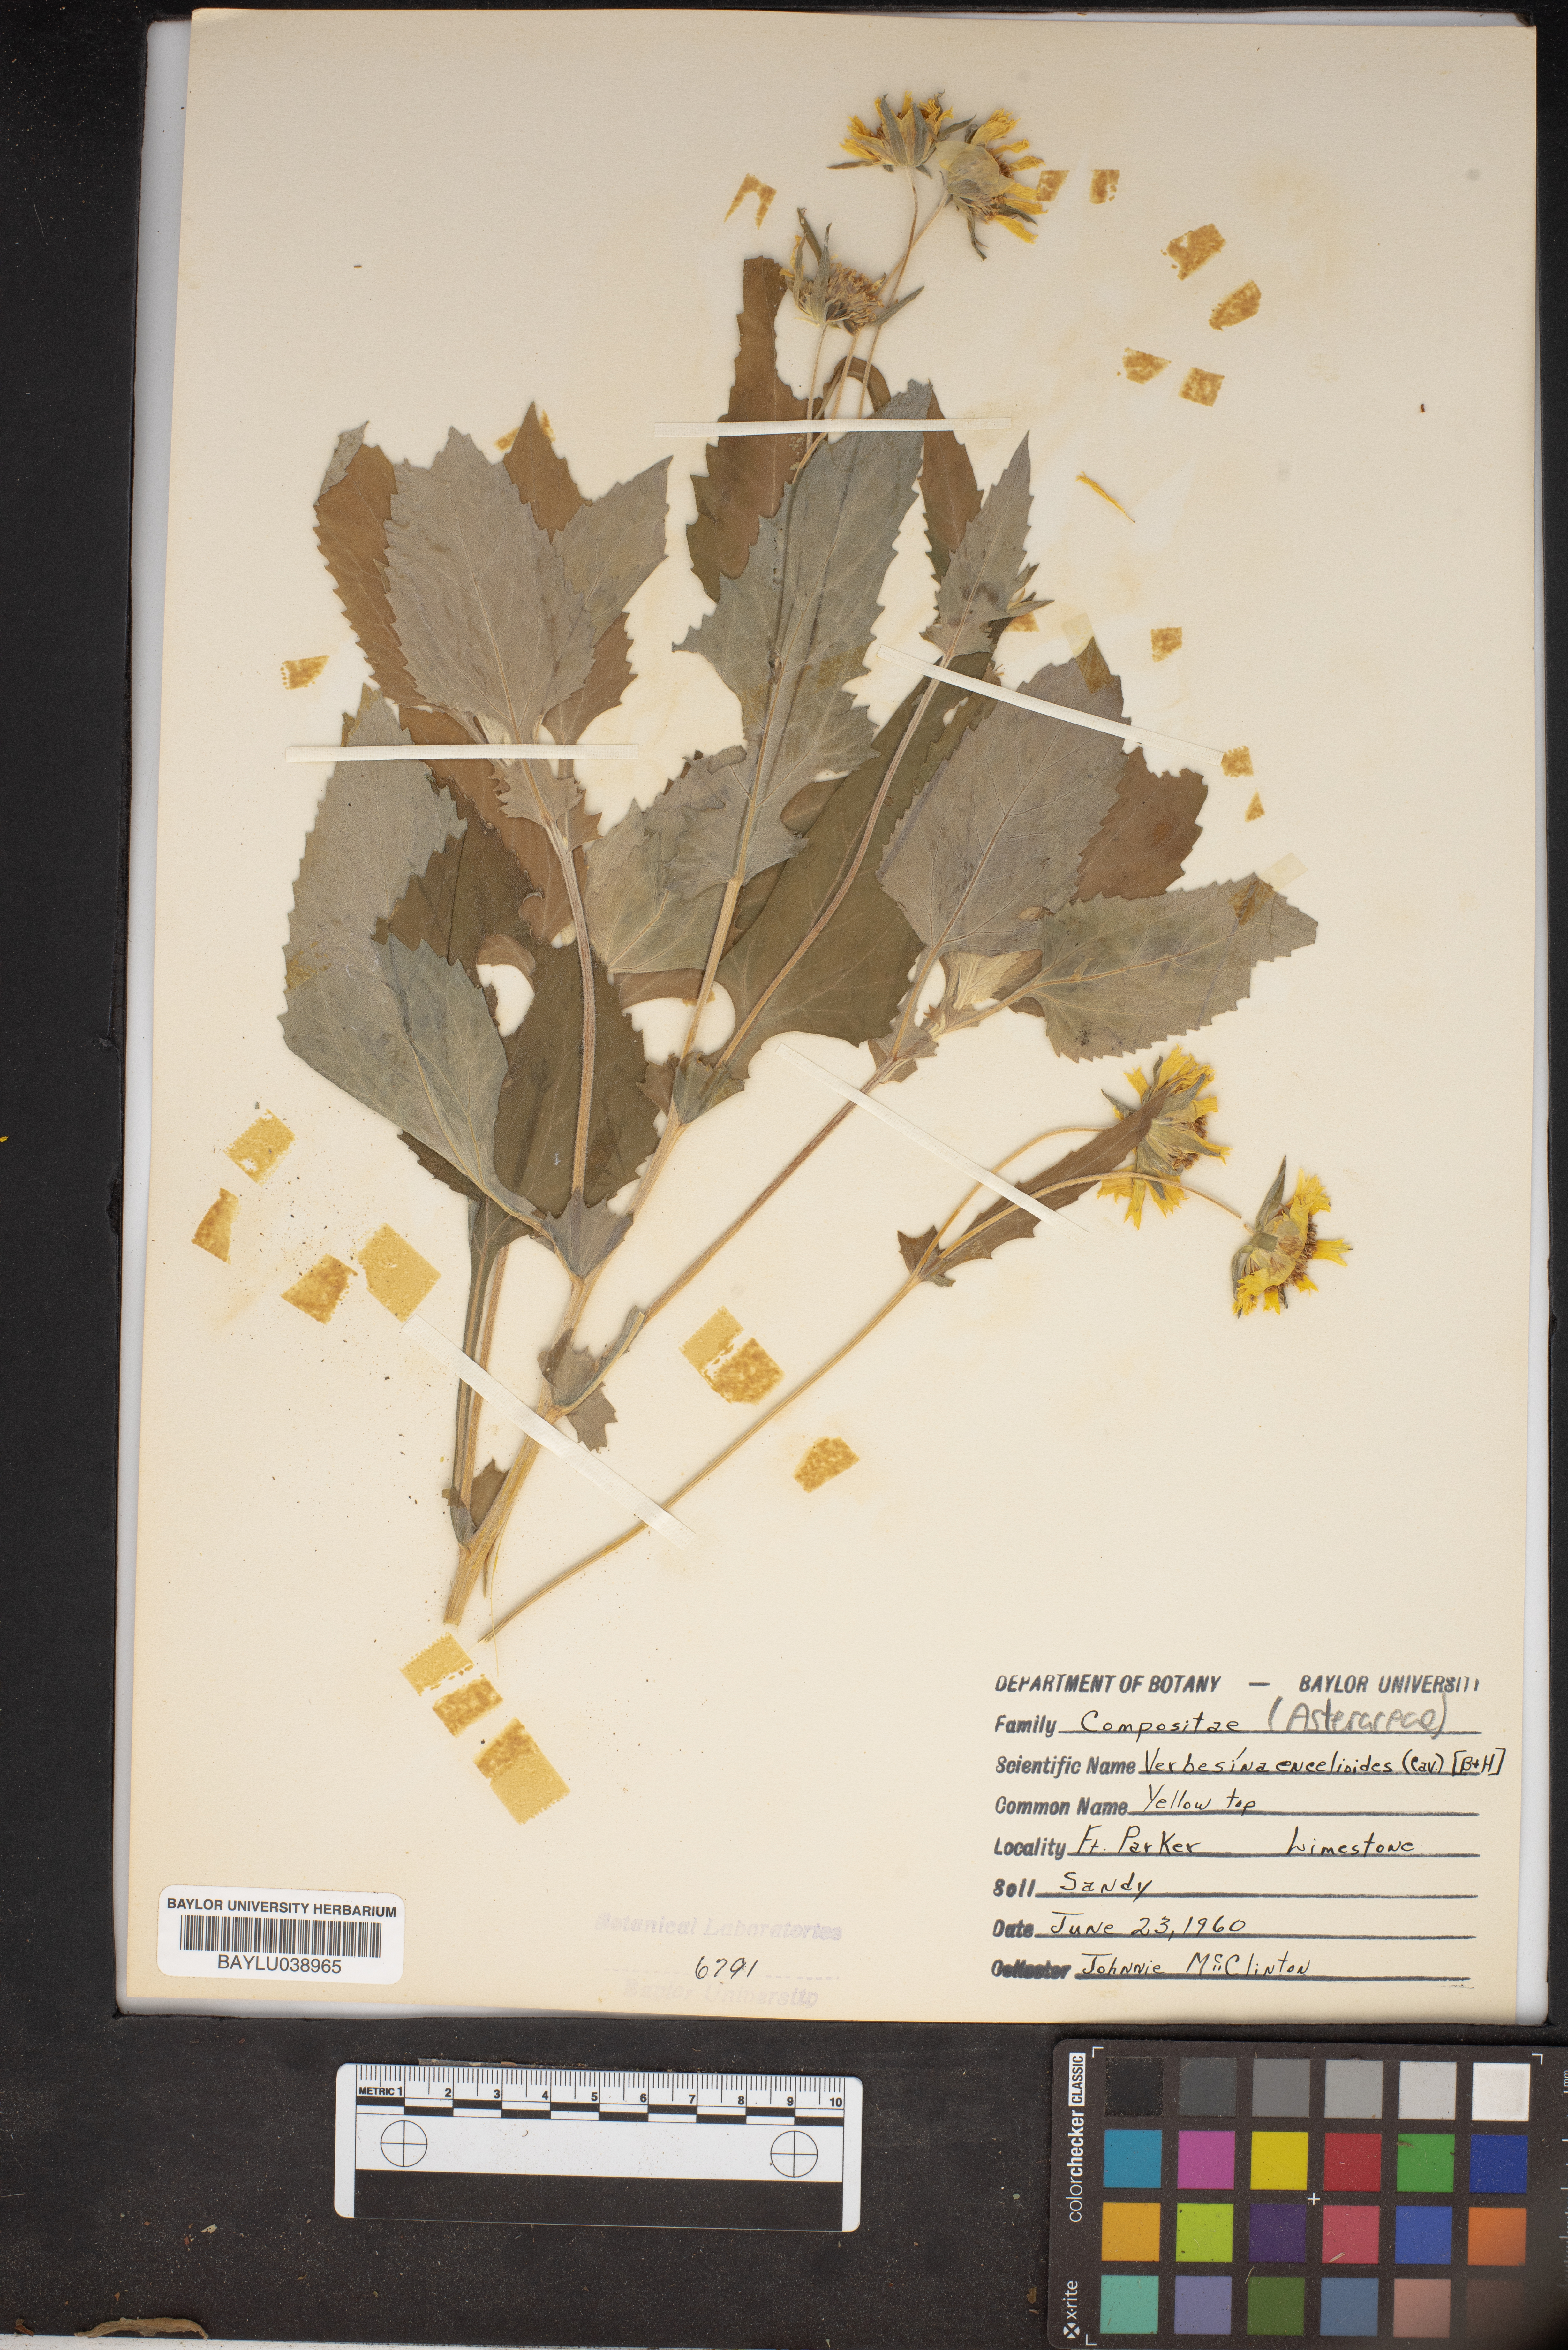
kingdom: Plantae
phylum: Tracheophyta
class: Magnoliopsida
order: Asterales
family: Asteraceae
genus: Verbesina
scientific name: Verbesina encelioides
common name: Golden crownbeard
